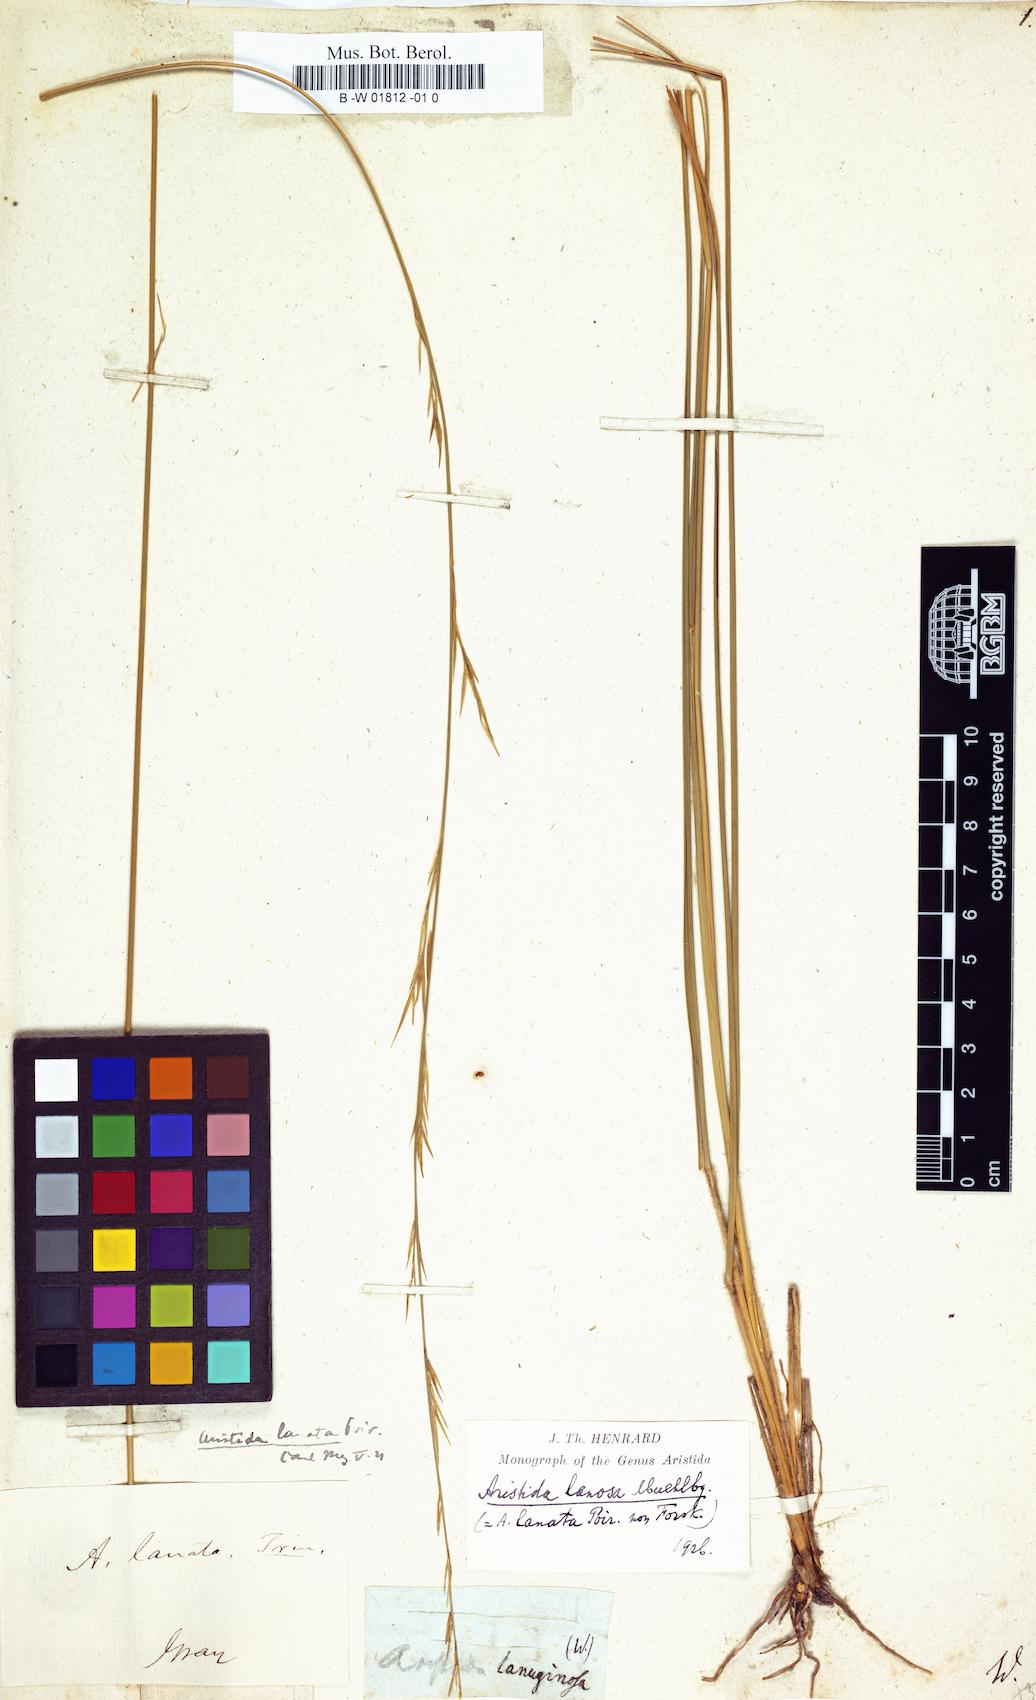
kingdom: Plantae
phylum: Tracheophyta
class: Liliopsida
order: Poales
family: Poaceae
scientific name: Poaceae
